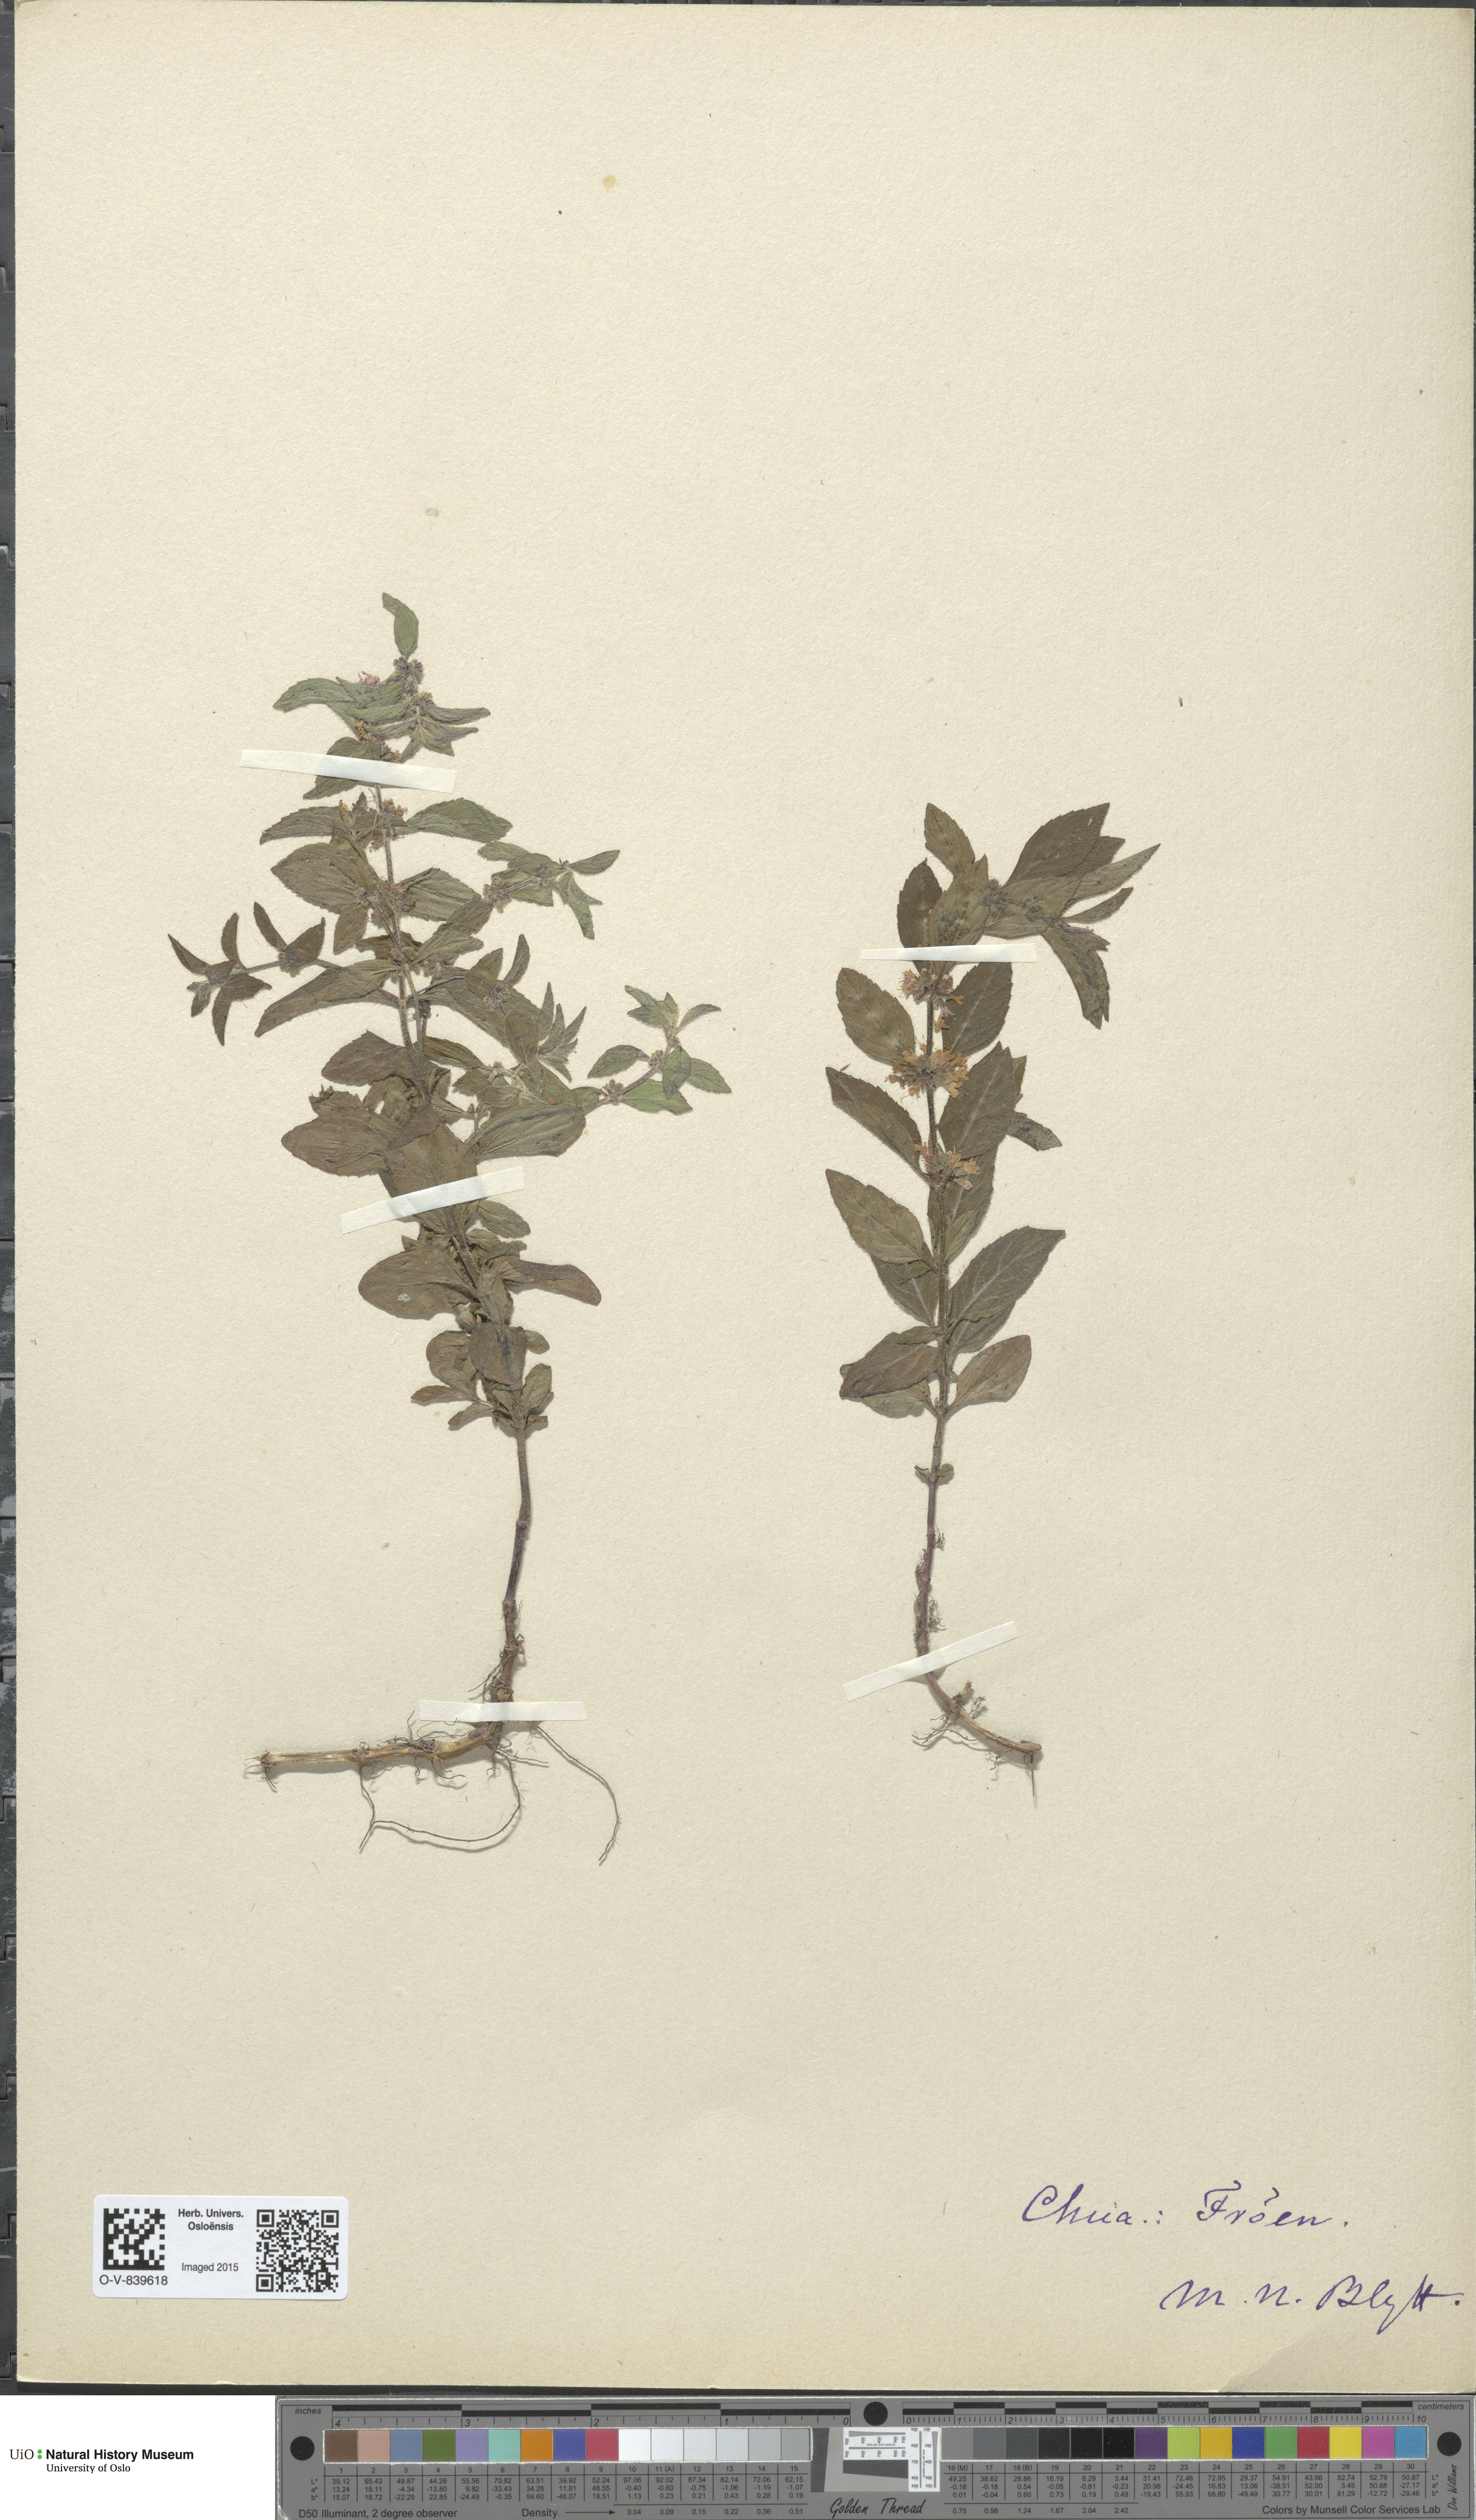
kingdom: Plantae
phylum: Tracheophyta
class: Magnoliopsida
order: Lamiales
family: Lamiaceae
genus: Mentha
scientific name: Mentha arvensis
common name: Corn mint
